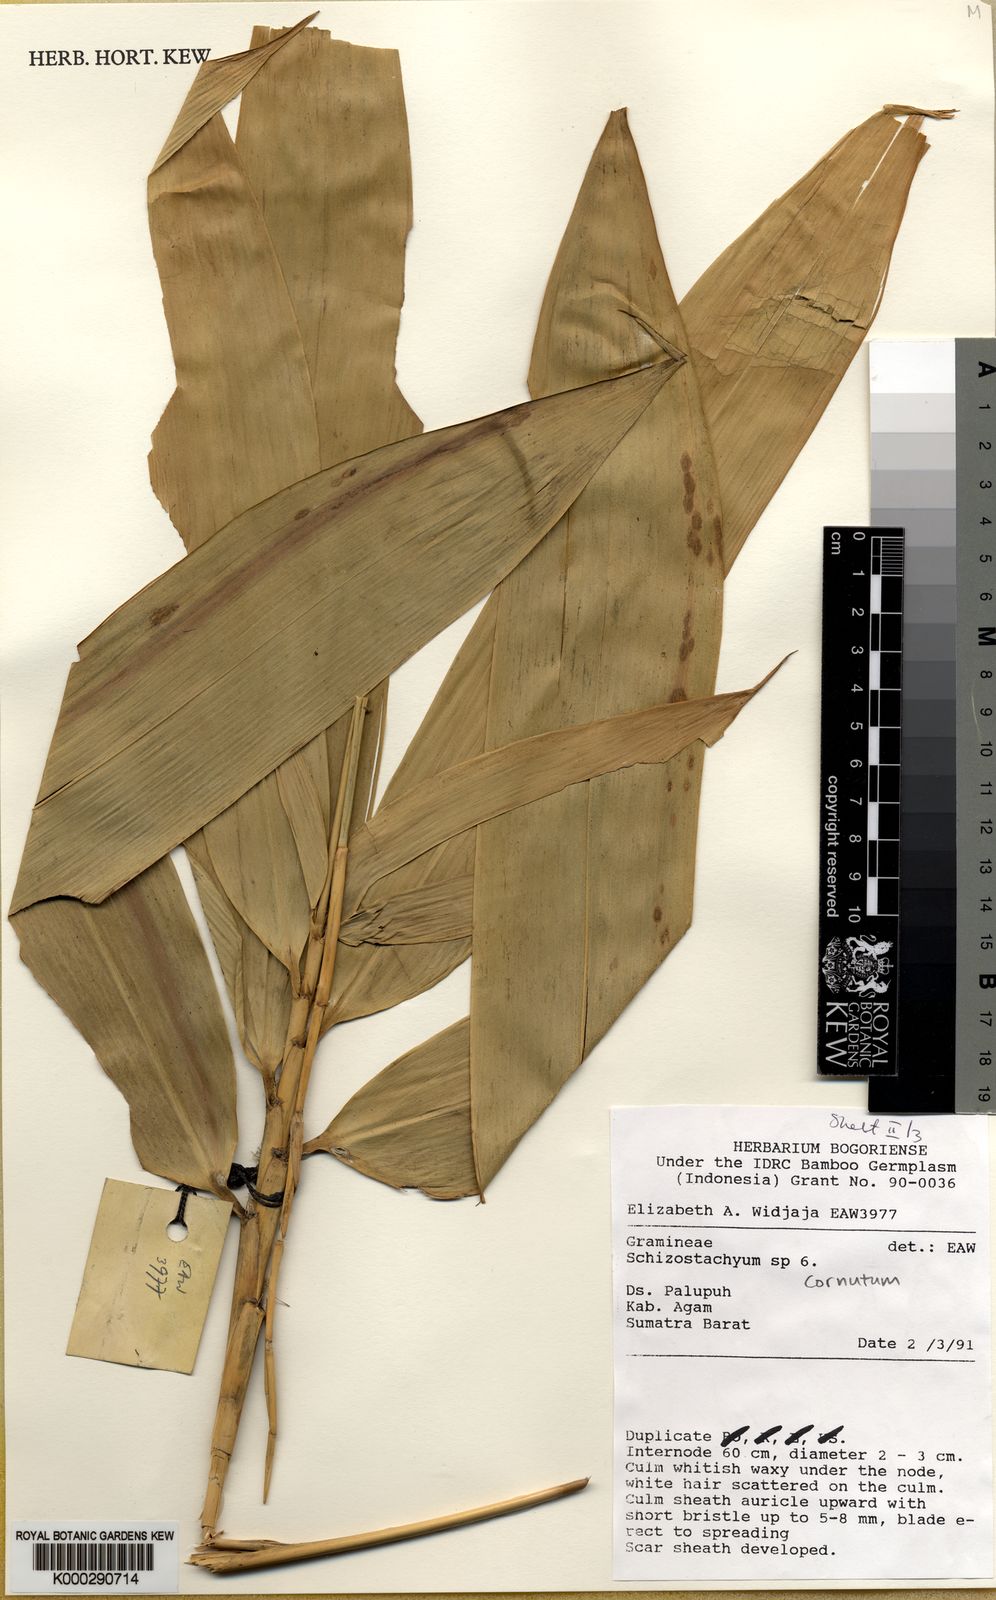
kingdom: Plantae
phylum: Tracheophyta
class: Liliopsida
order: Poales
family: Poaceae
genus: Schizostachyum
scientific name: Schizostachyum cornutum
